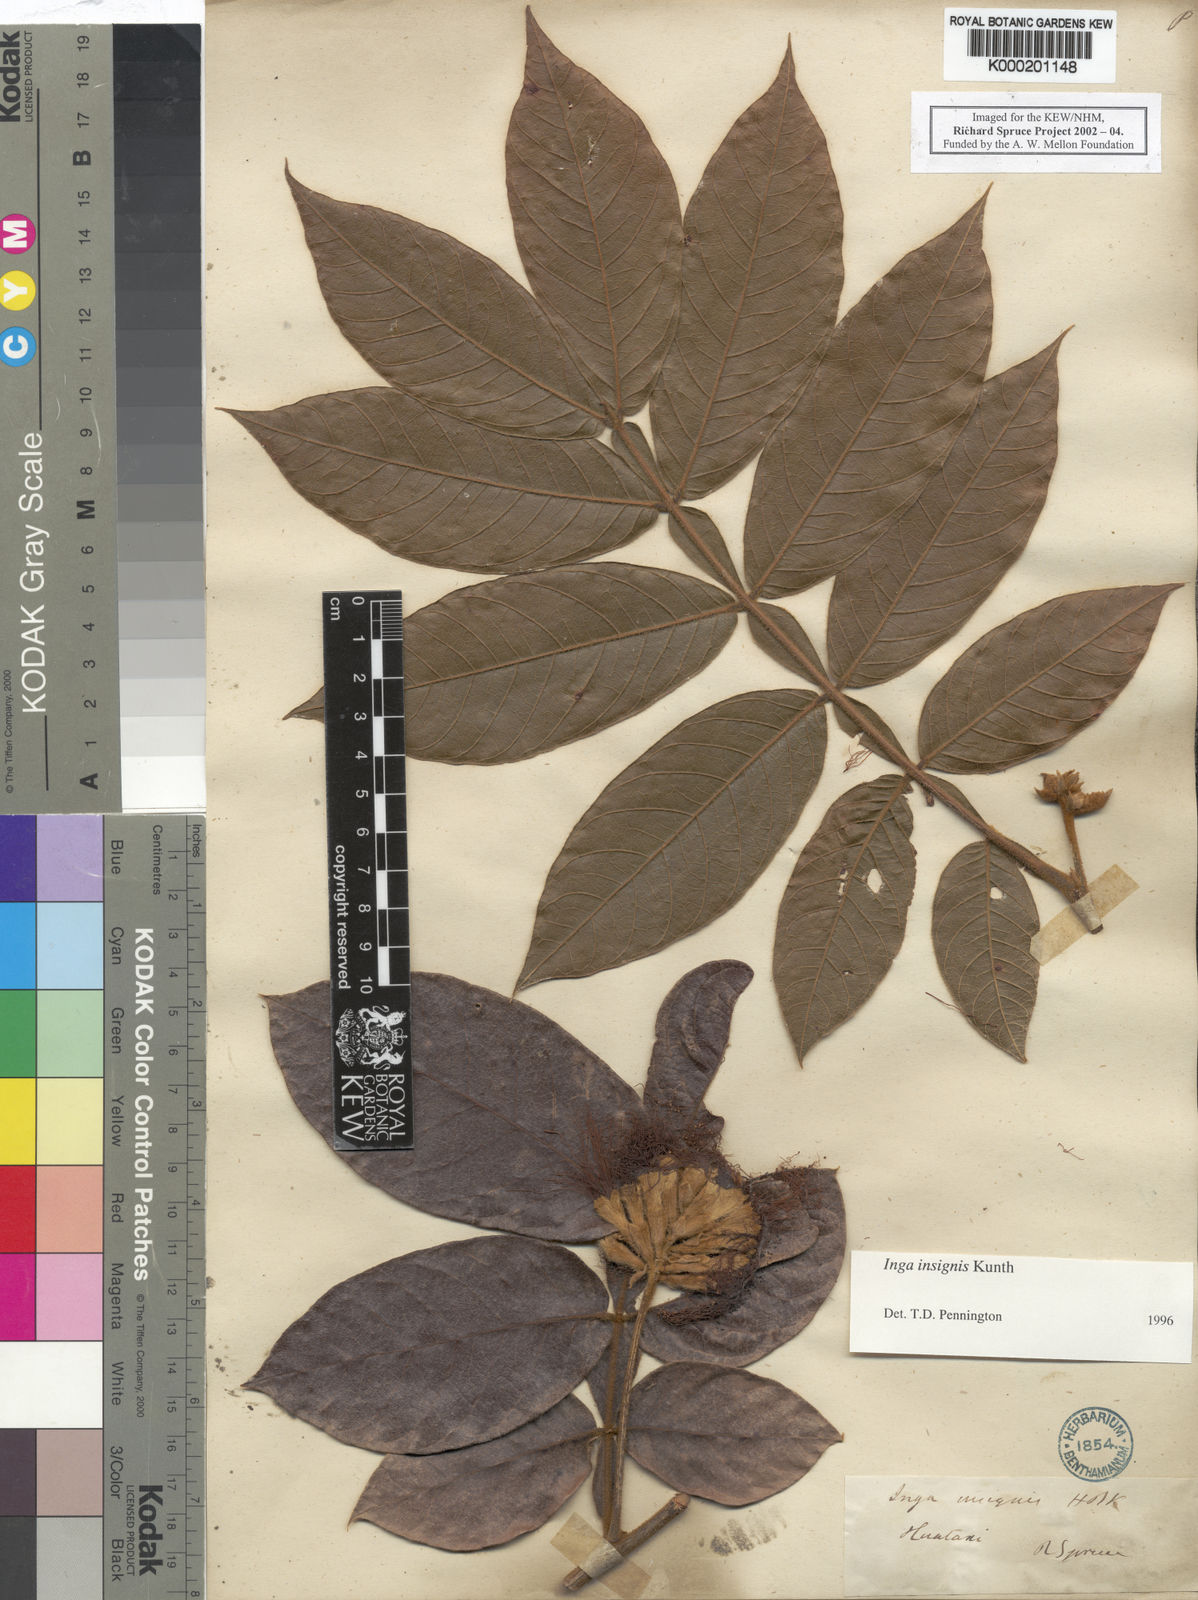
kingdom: Plantae
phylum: Tracheophyta
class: Magnoliopsida
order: Fabales
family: Fabaceae
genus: Inga
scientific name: Inga insignis
